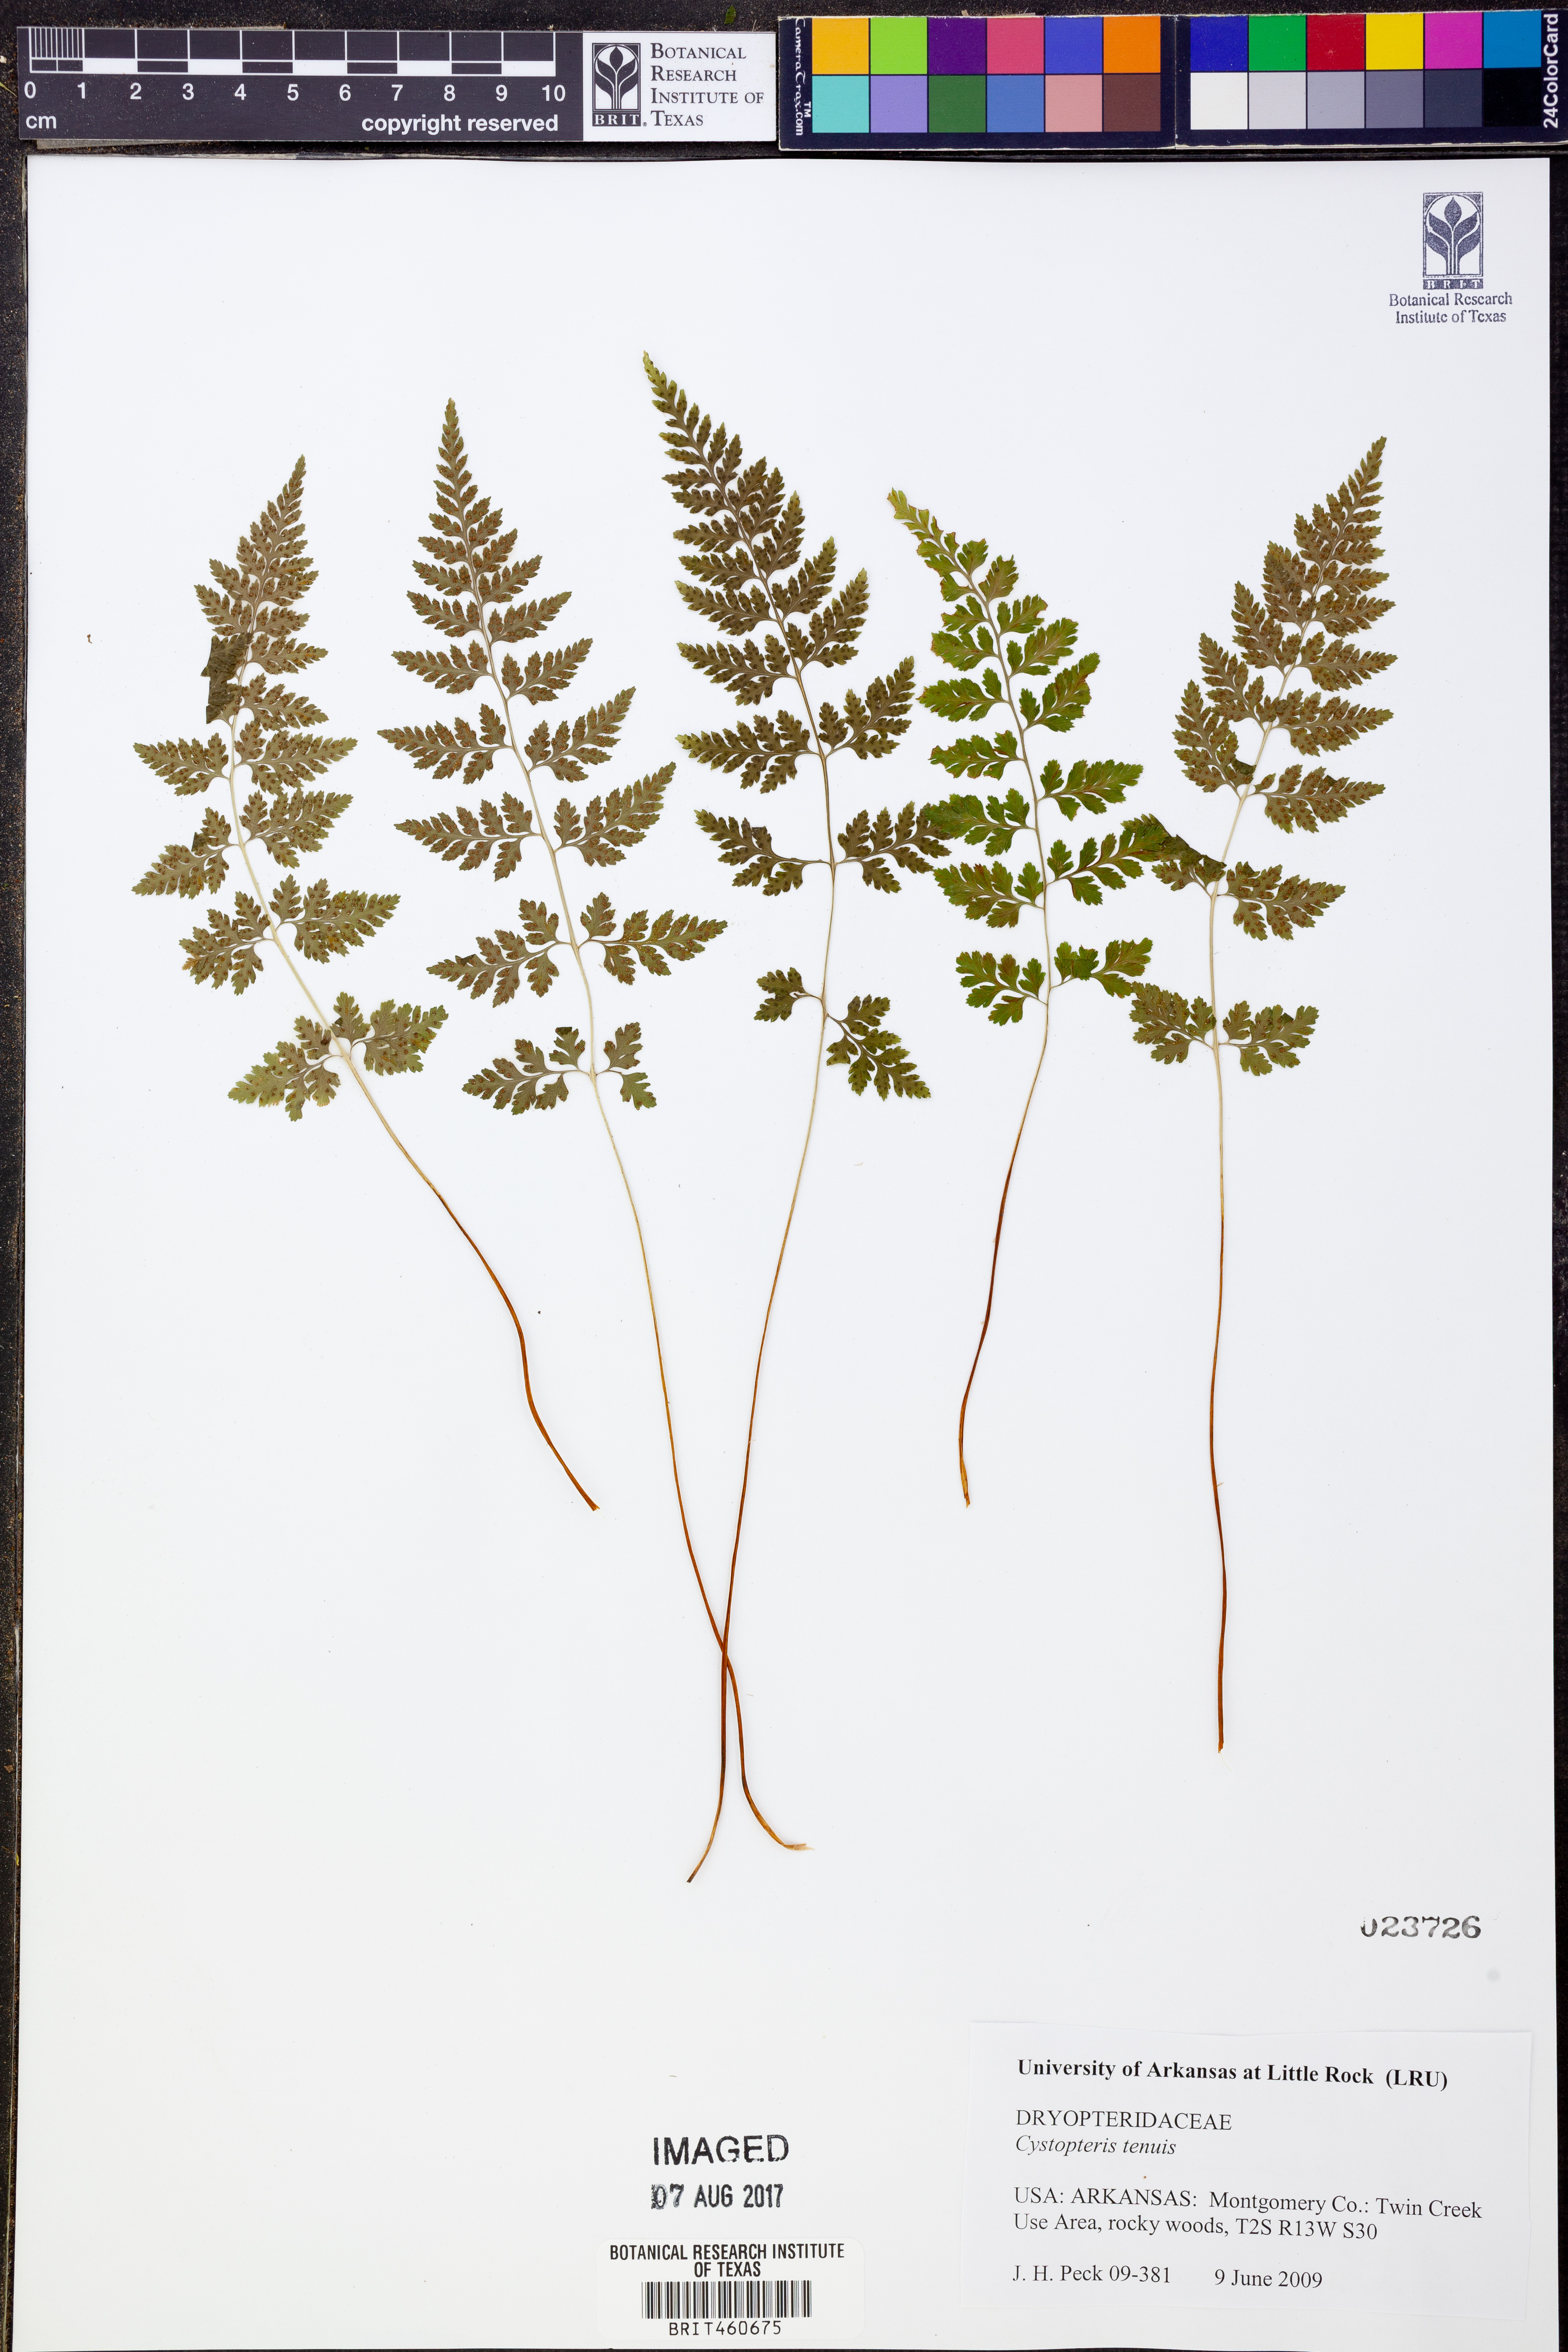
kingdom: Plantae
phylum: Tracheophyta
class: Polypodiopsida
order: Polypodiales
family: Cystopteridaceae
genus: Cystopteris
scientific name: Cystopteris tenuis
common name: Mackay's brittle fern
